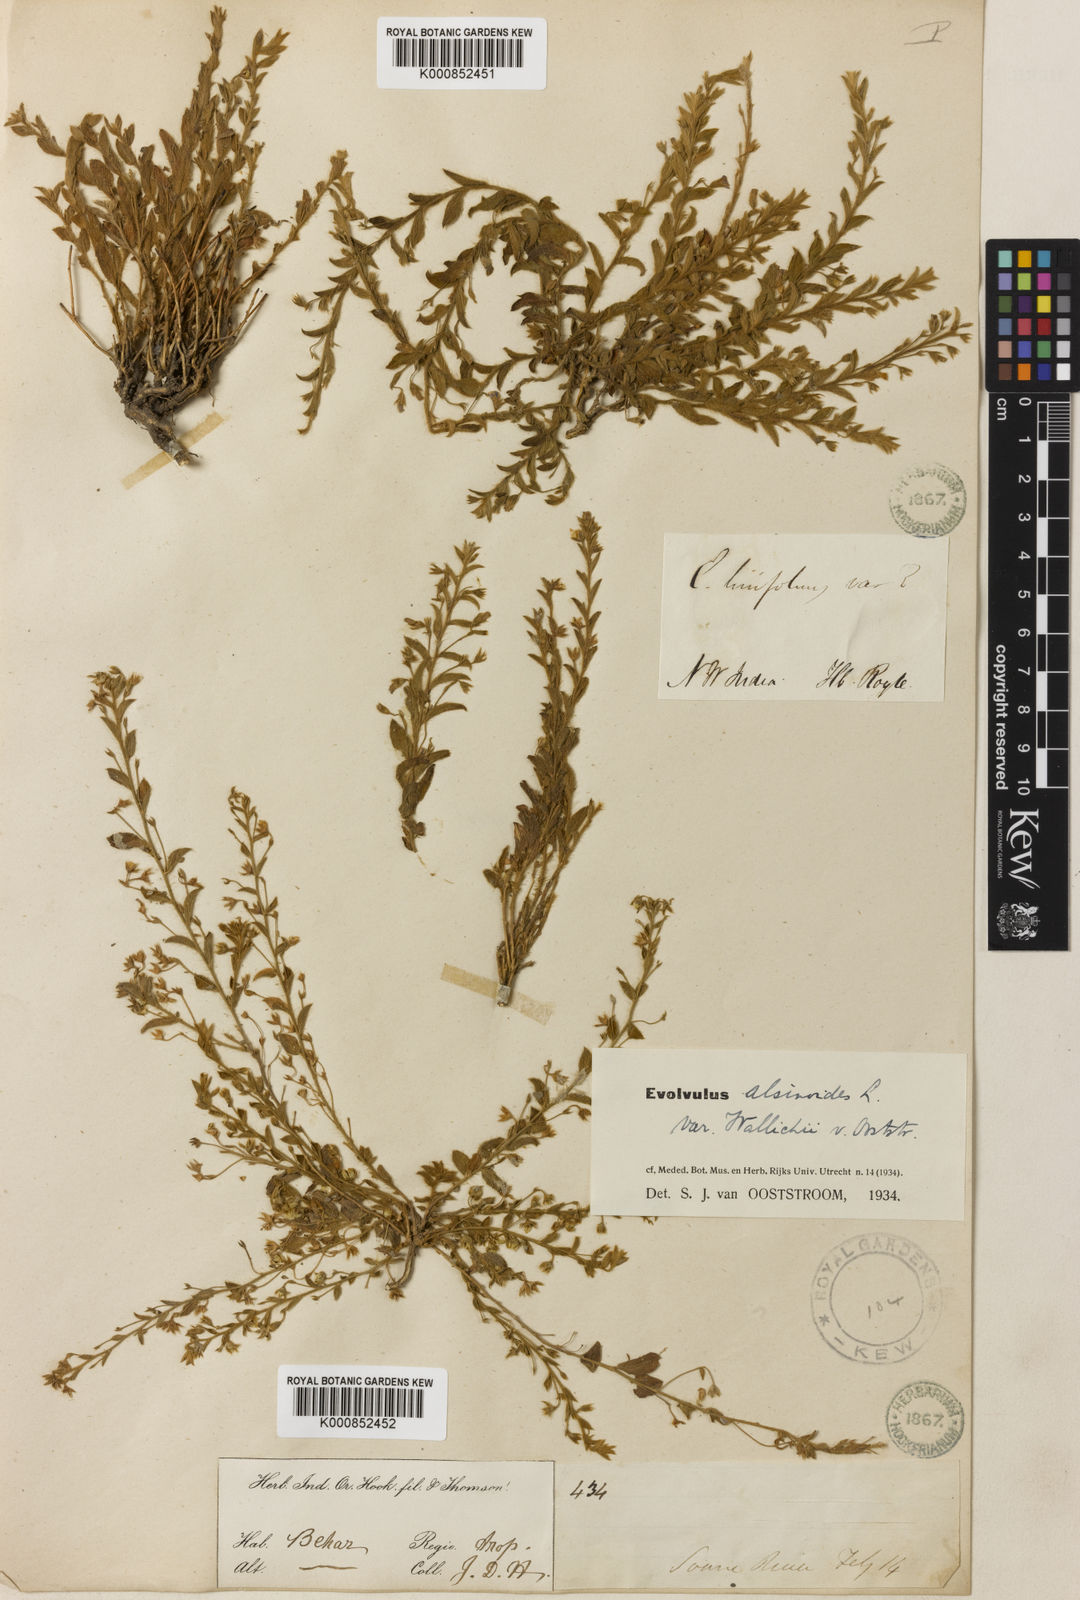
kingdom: Plantae
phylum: Tracheophyta
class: Magnoliopsida
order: Solanales
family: Convolvulaceae
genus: Evolvulus
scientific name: Evolvulus alsinoides
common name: Slender dwarf morning-glory
